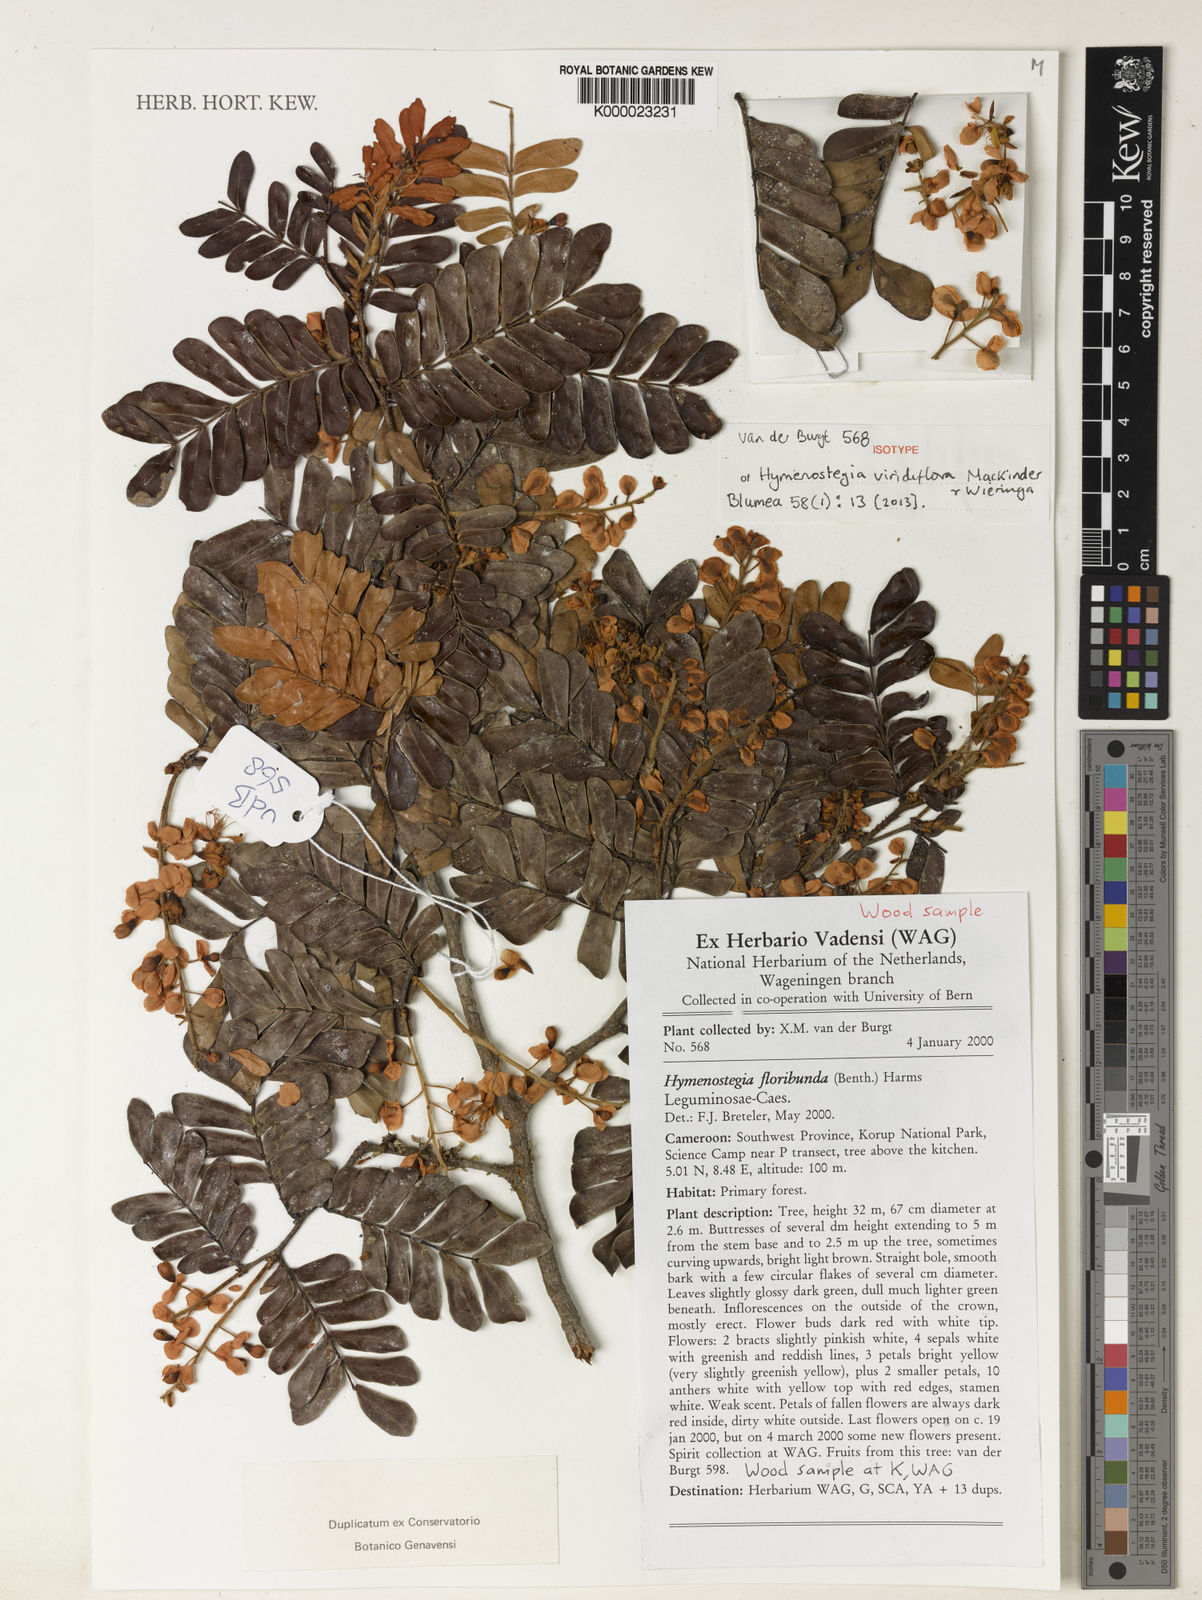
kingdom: Plantae
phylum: Tracheophyta
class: Magnoliopsida
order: Fabales
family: Fabaceae
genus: Hymenostegia
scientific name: Hymenostegia viridiflora
